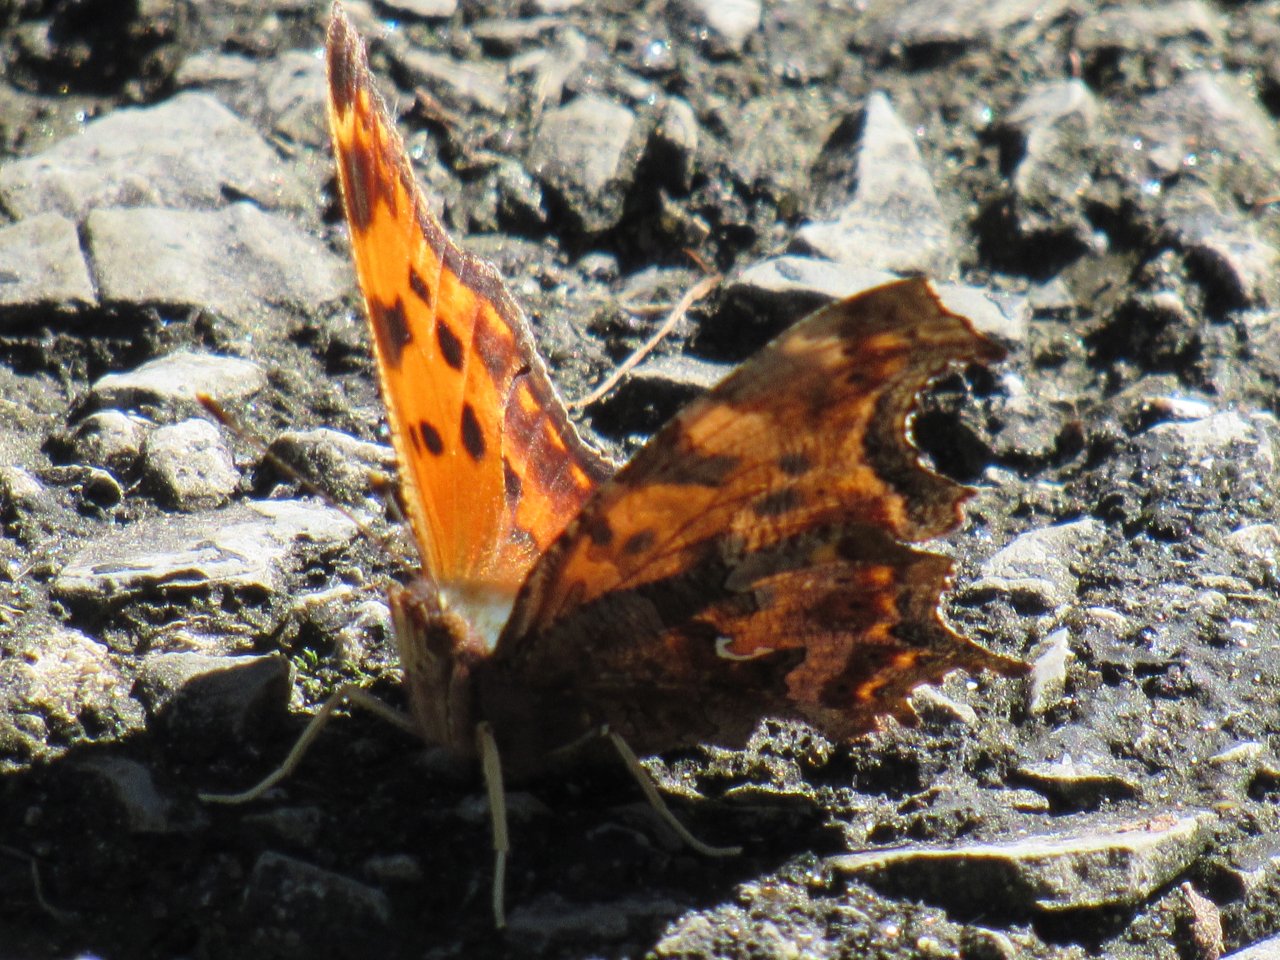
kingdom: Animalia
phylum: Arthropoda
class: Insecta
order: Lepidoptera
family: Nymphalidae
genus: Polygonia
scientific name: Polygonia comma
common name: Eastern Comma
